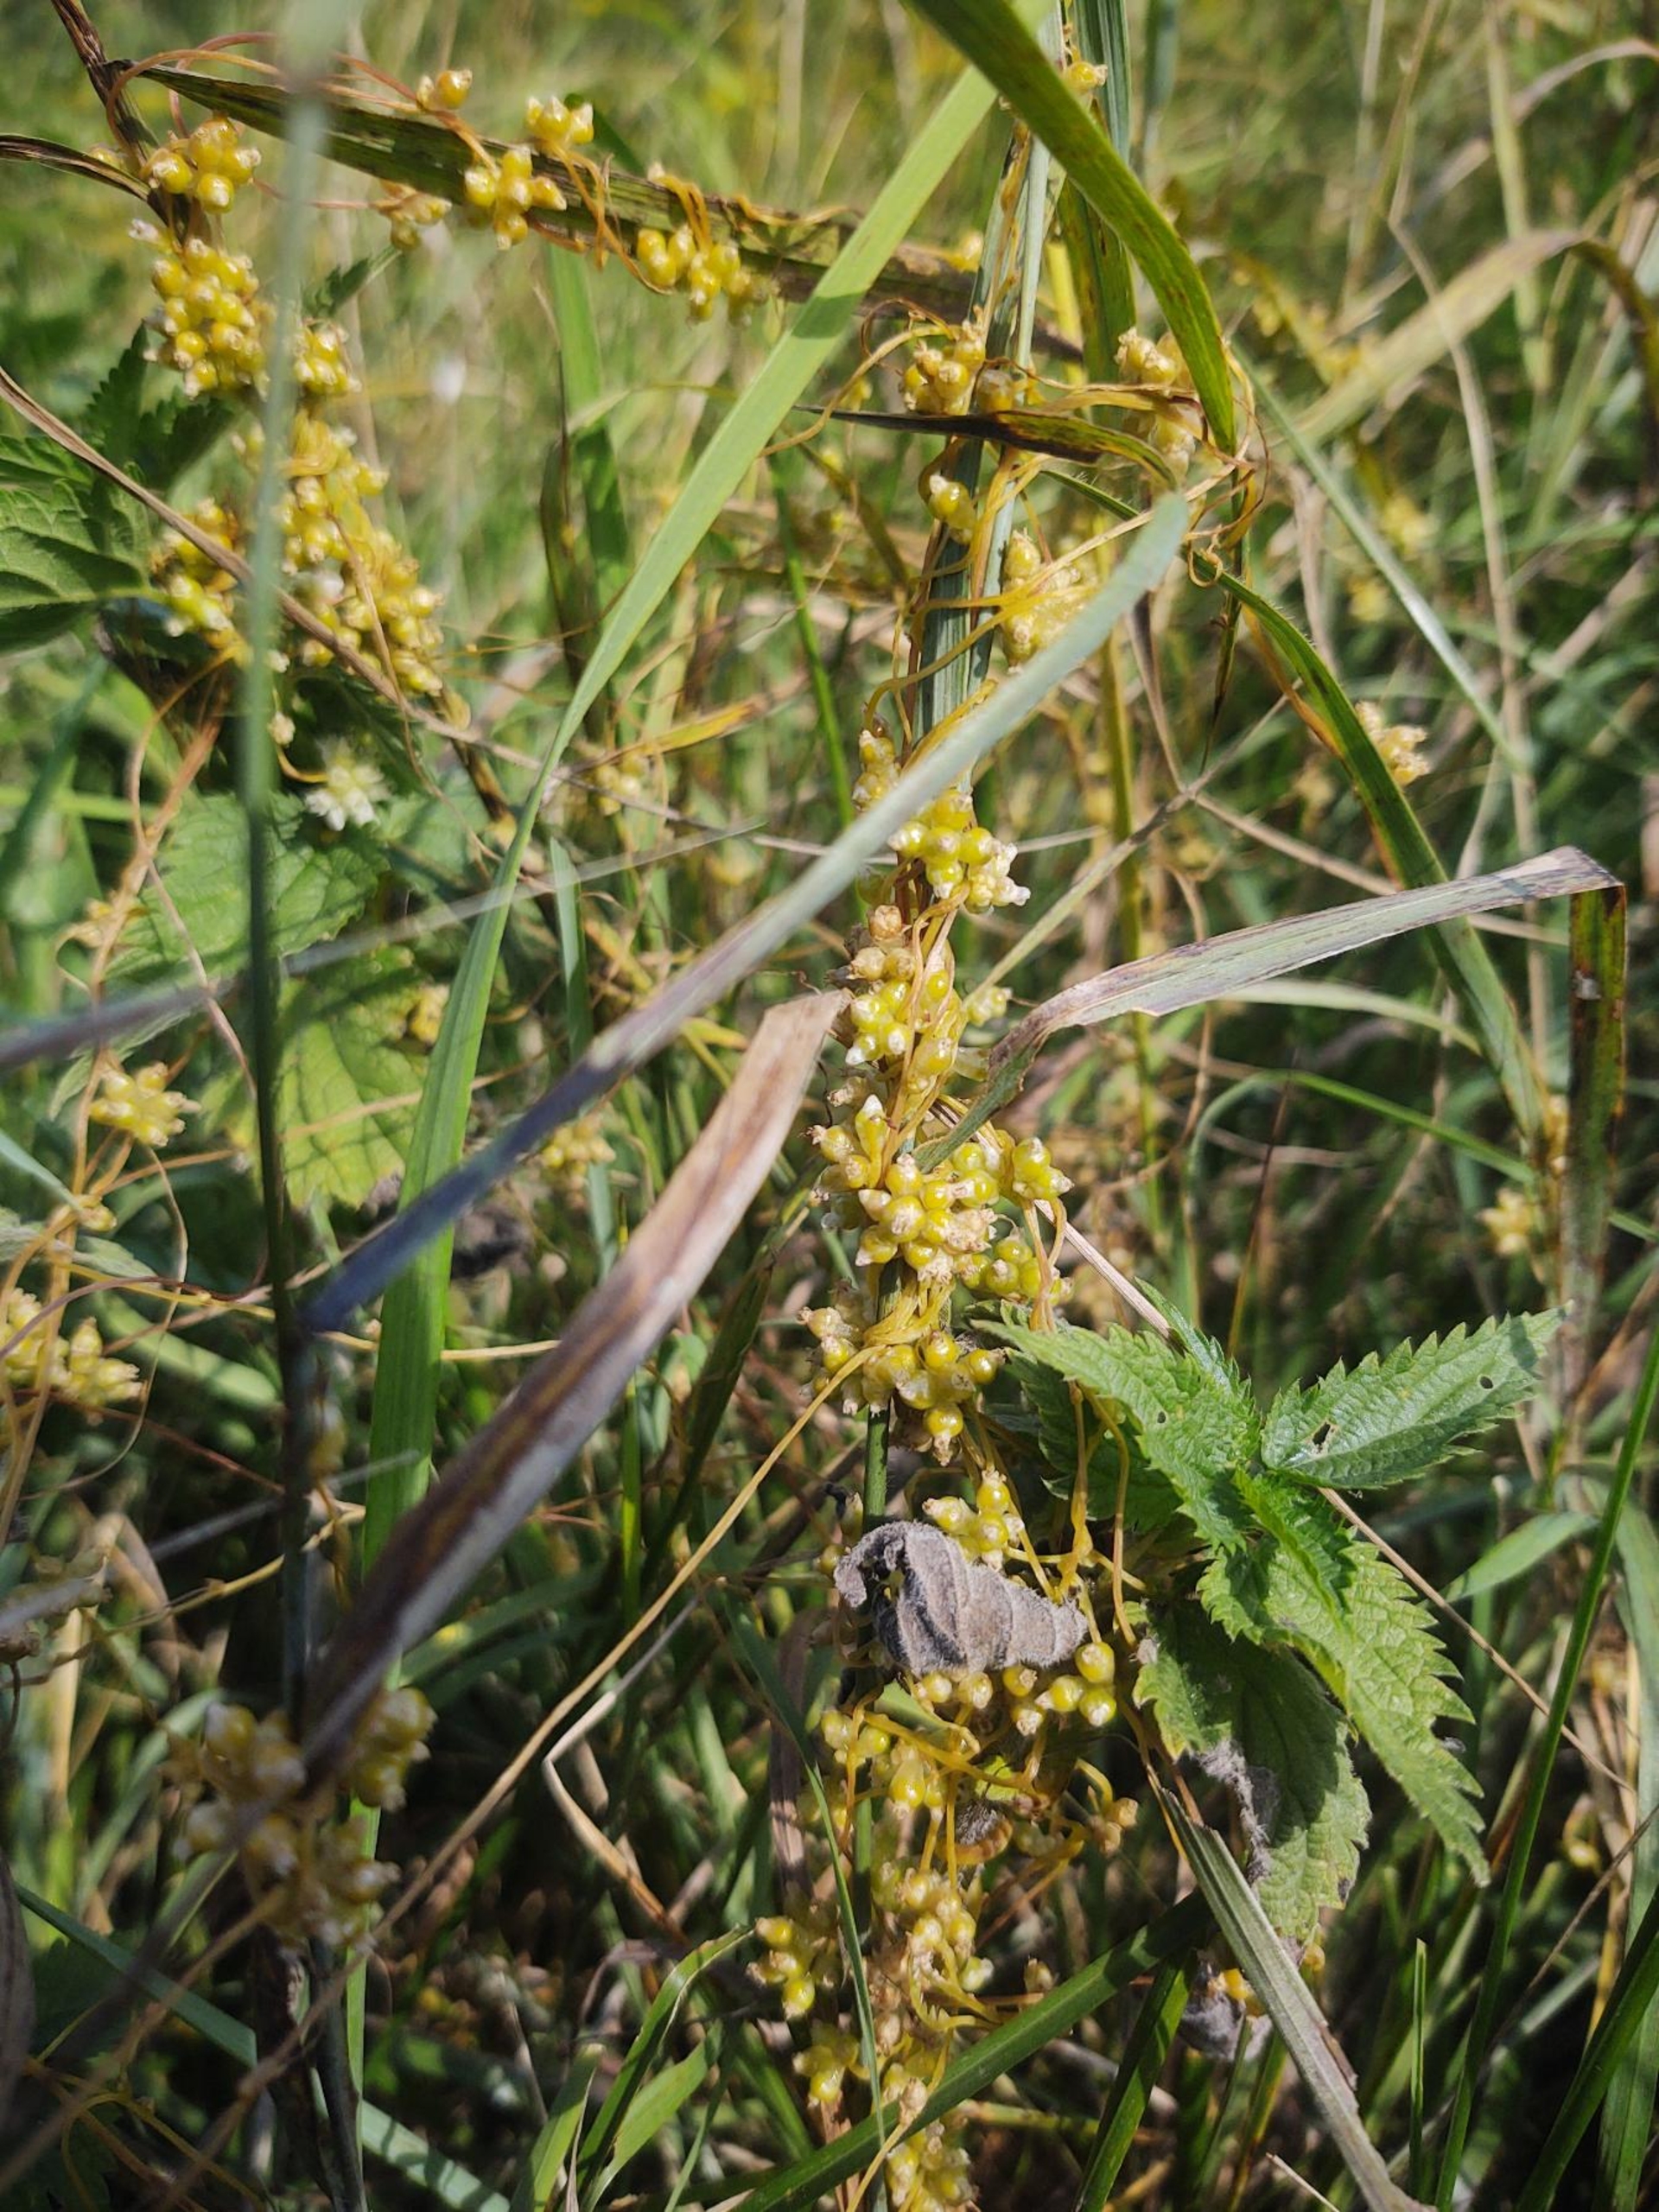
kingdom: Plantae
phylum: Tracheophyta
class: Magnoliopsida
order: Solanales
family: Convolvulaceae
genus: Cuscuta
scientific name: Cuscuta europaea
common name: Nælde-silke
